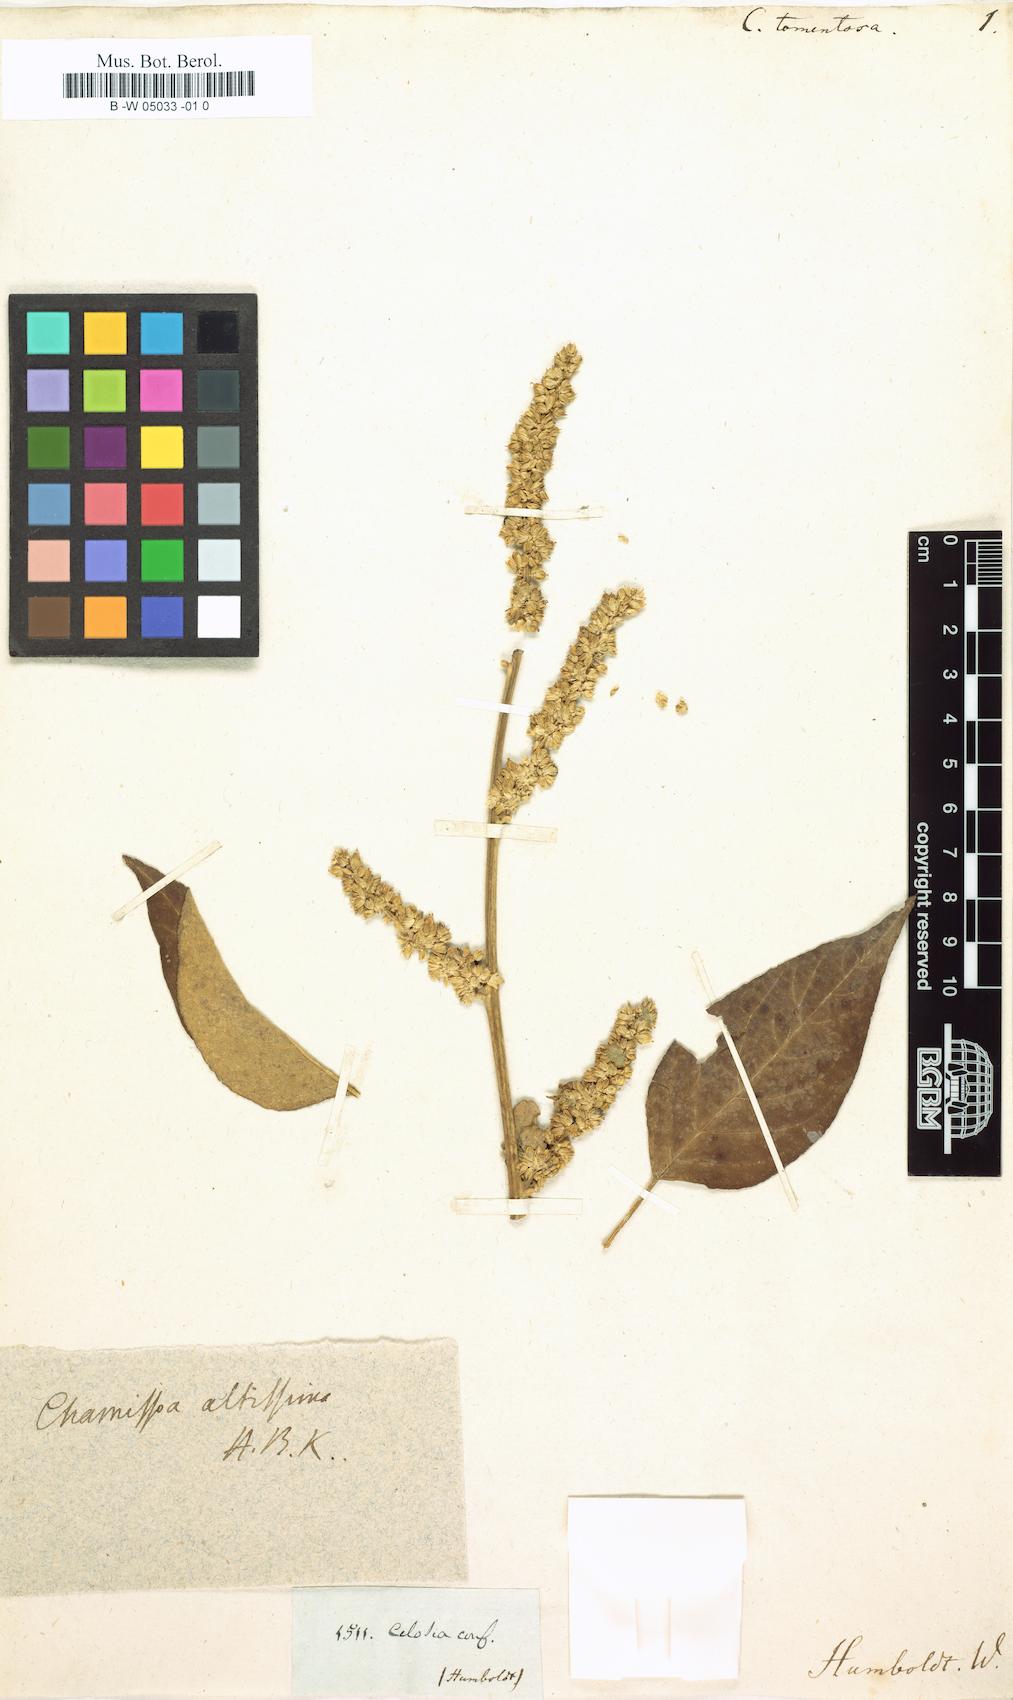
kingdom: Plantae
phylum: Tracheophyta
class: Magnoliopsida
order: Caryophyllales
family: Amaranthaceae
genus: Chamissoa
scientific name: Chamissoa altissima
